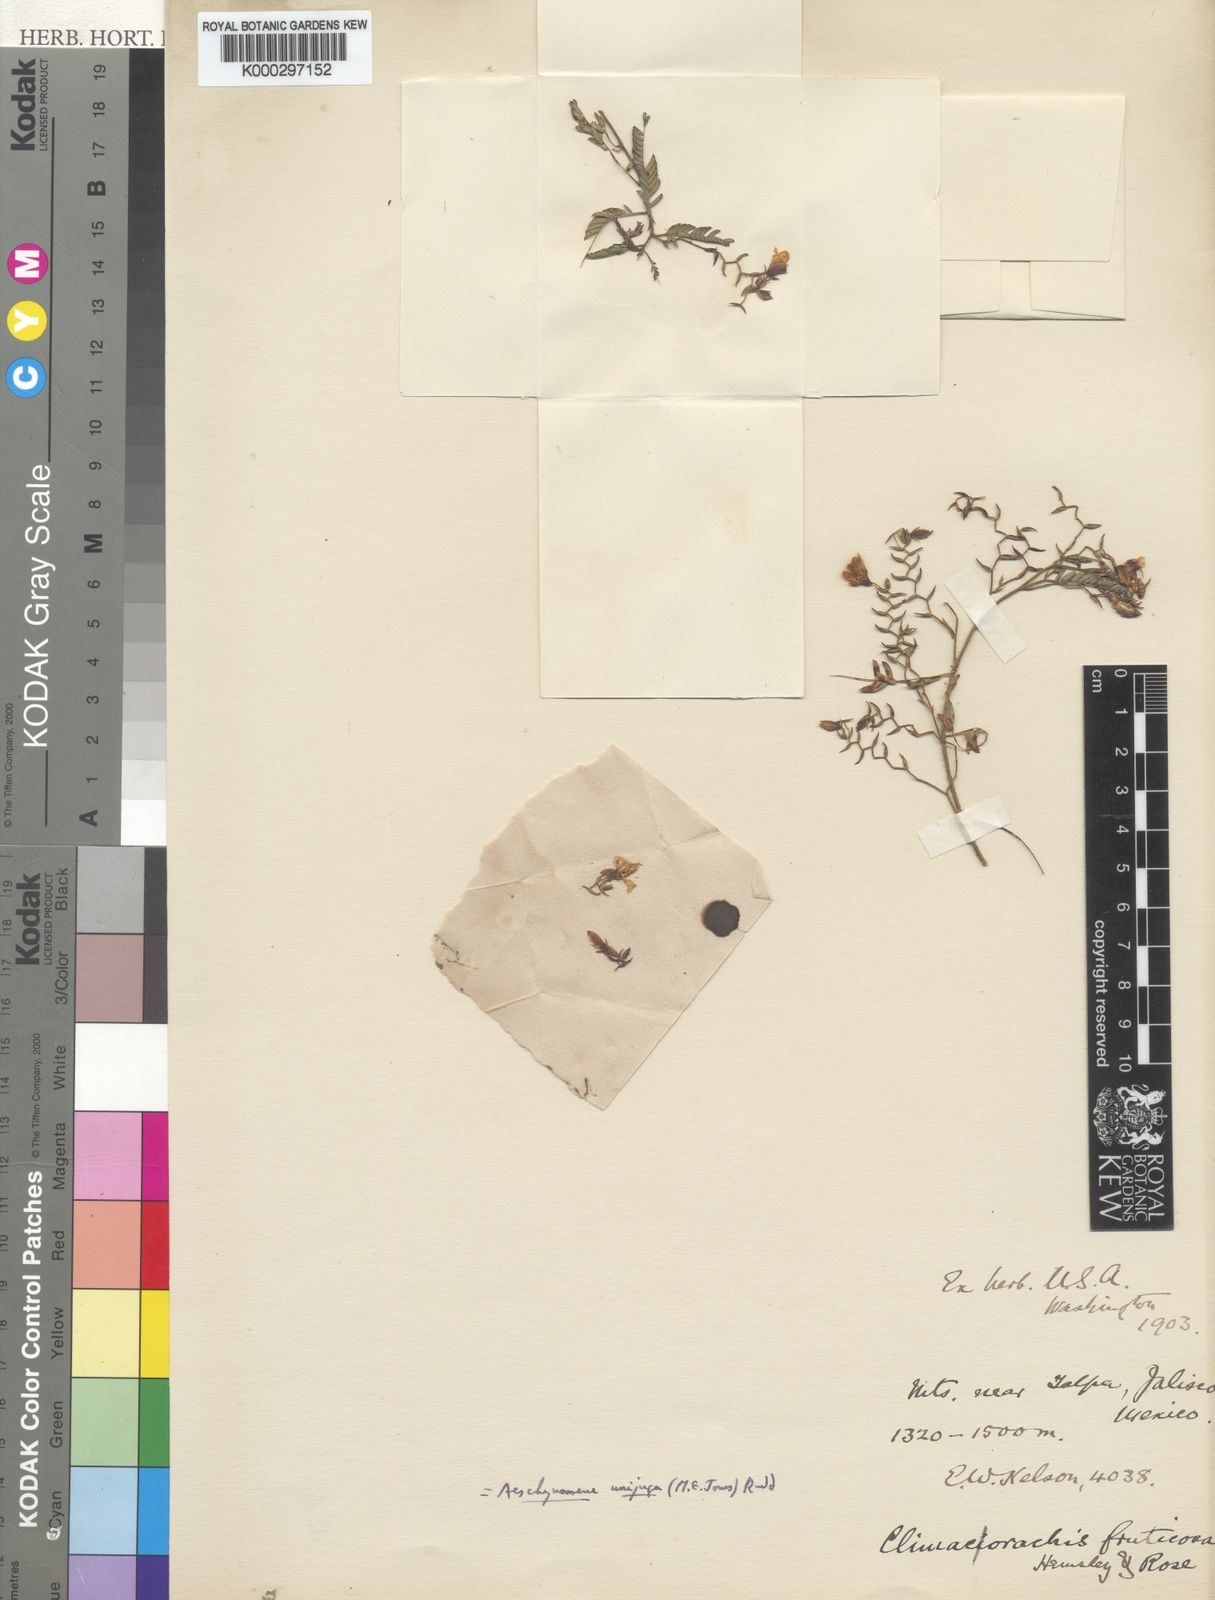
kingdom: Plantae
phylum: Tracheophyta
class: Magnoliopsida
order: Fabales
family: Fabaceae
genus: Aeschynomene
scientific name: Aeschynomene unijuga
